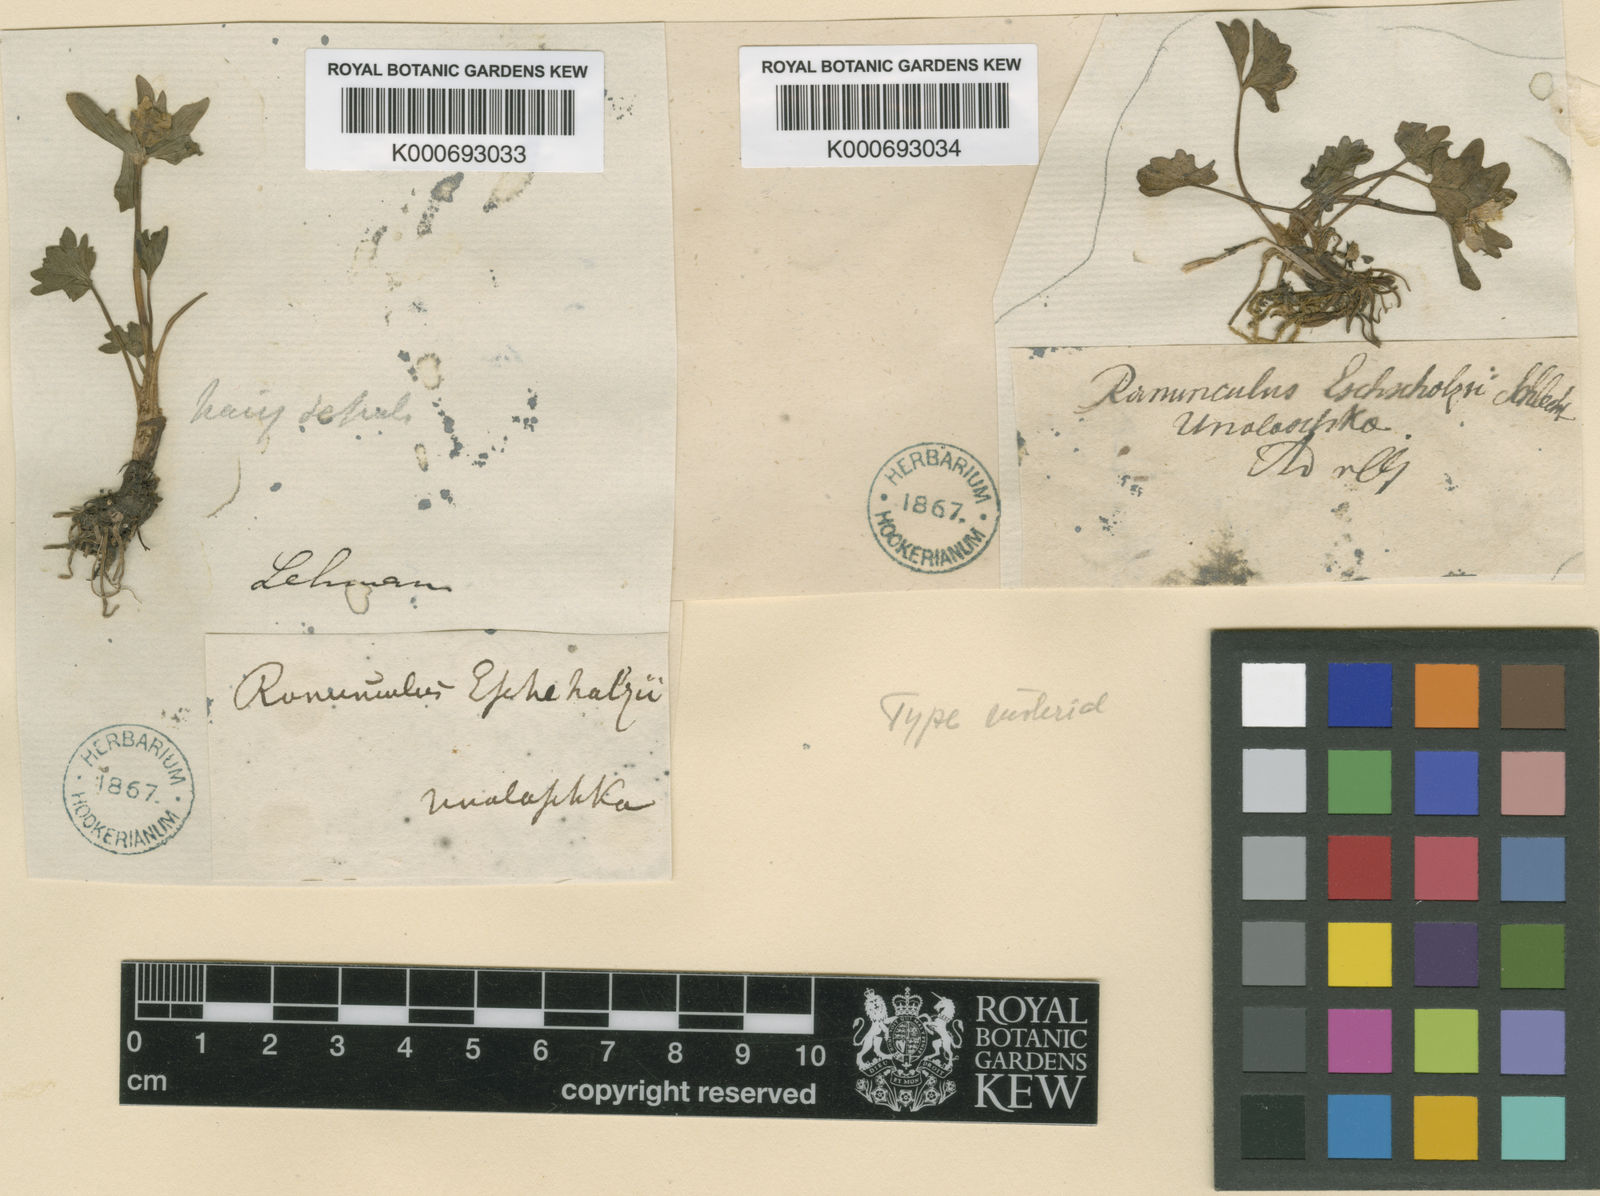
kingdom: Plantae
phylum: Tracheophyta
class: Magnoliopsida
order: Ranunculales
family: Ranunculaceae
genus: Ranunculus
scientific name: Ranunculus eschscholtzii
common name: Eschscholtz's buttercup
